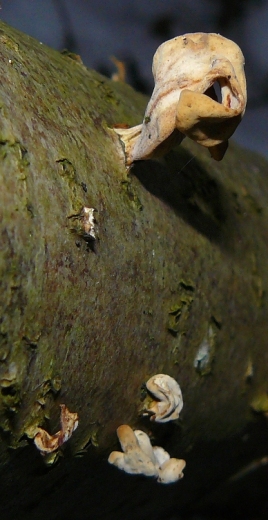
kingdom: Fungi
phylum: Basidiomycota
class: Agaricomycetes
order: Agaricales
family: Typhulaceae
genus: Typhula
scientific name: Typhula fistulosa
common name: pibet rørkølle
